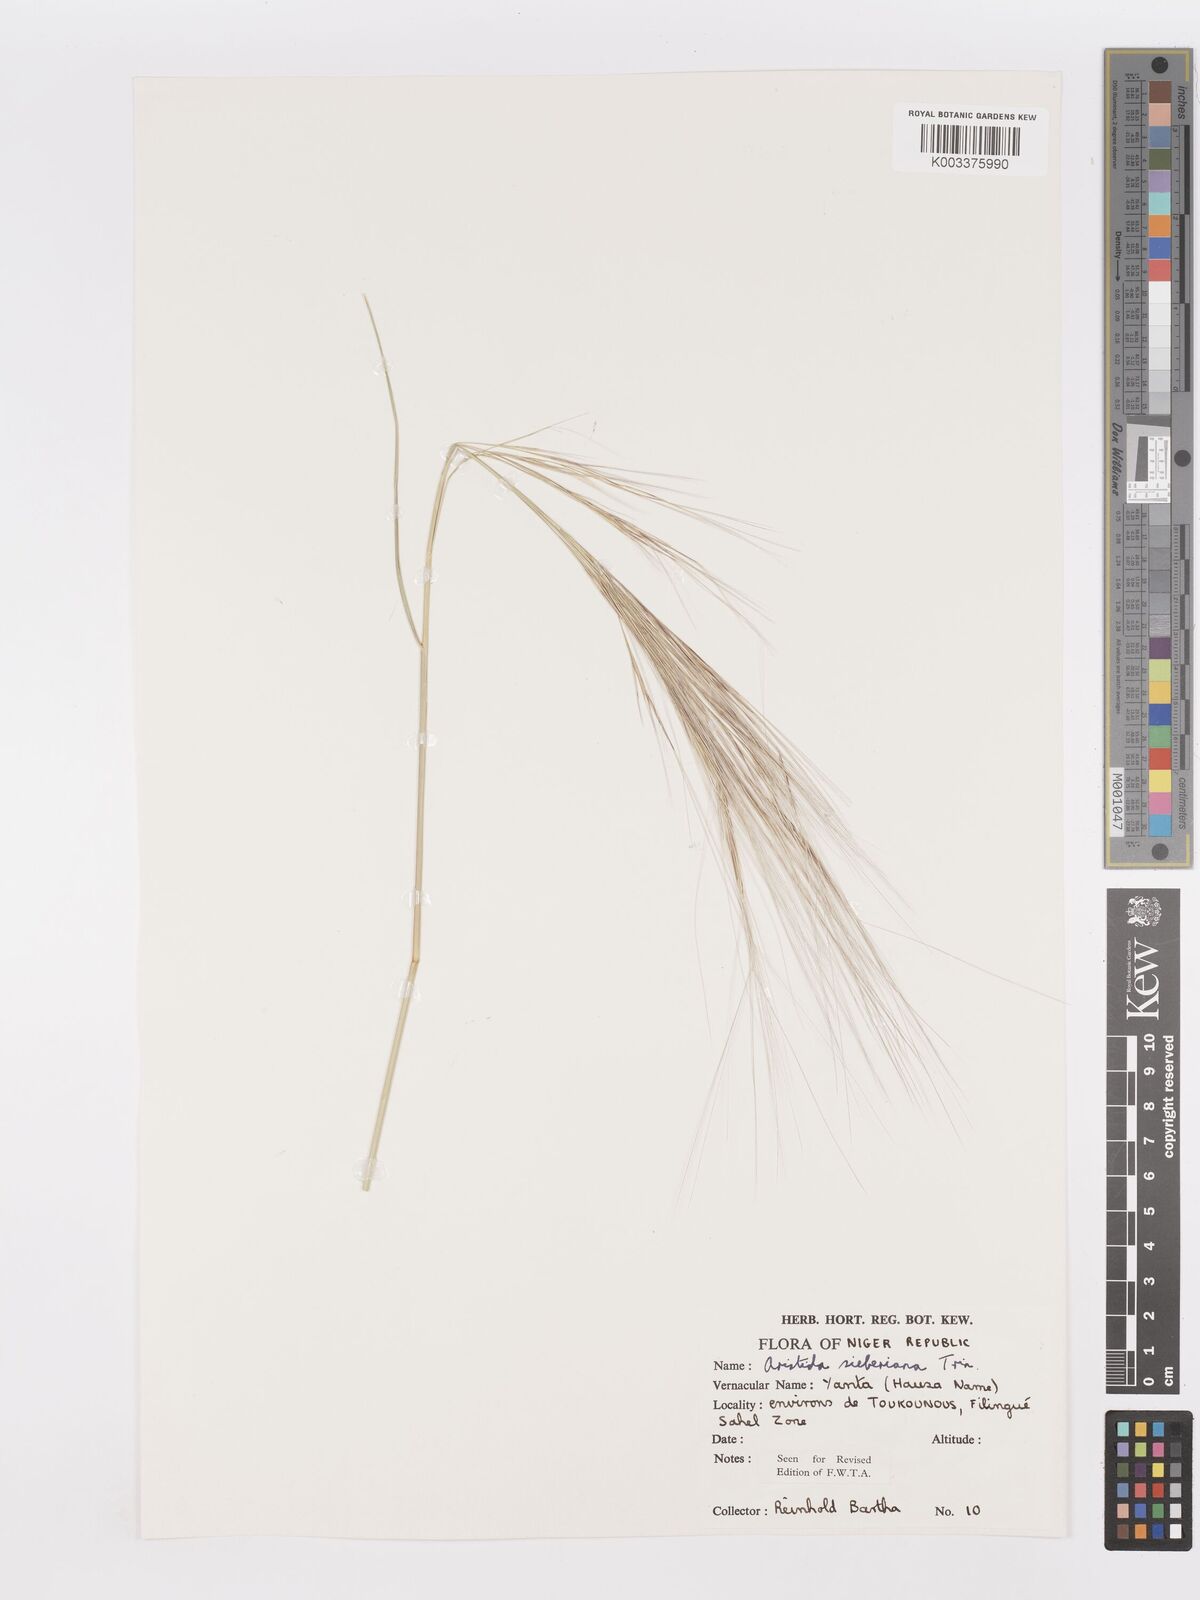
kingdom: Plantae
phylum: Tracheophyta
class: Liliopsida
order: Poales
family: Poaceae
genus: Aristida
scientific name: Aristida sieberiana
